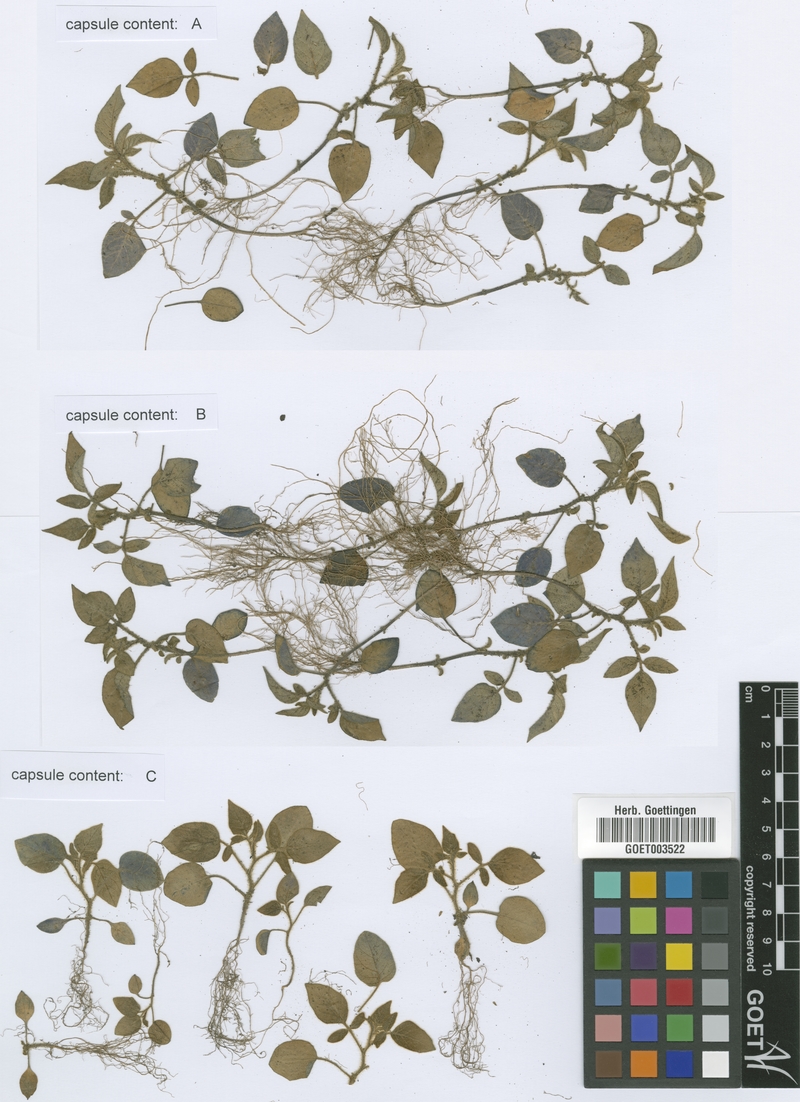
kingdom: Plantae
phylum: Tracheophyta
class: Magnoliopsida
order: Solanales
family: Solanaceae
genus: Solanum
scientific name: Solanum fraxinifolium
